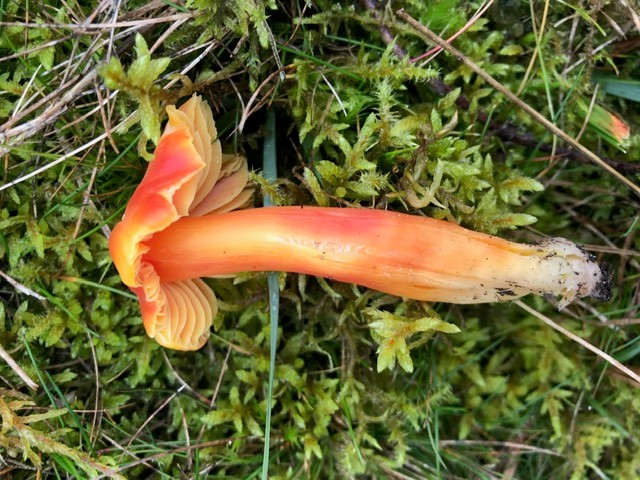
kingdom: Fungi
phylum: Basidiomycota
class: Agaricomycetes
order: Agaricales
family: Hygrophoraceae
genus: Hygrocybe
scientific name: Hygrocybe splendidissima
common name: knaldrød vokshat
